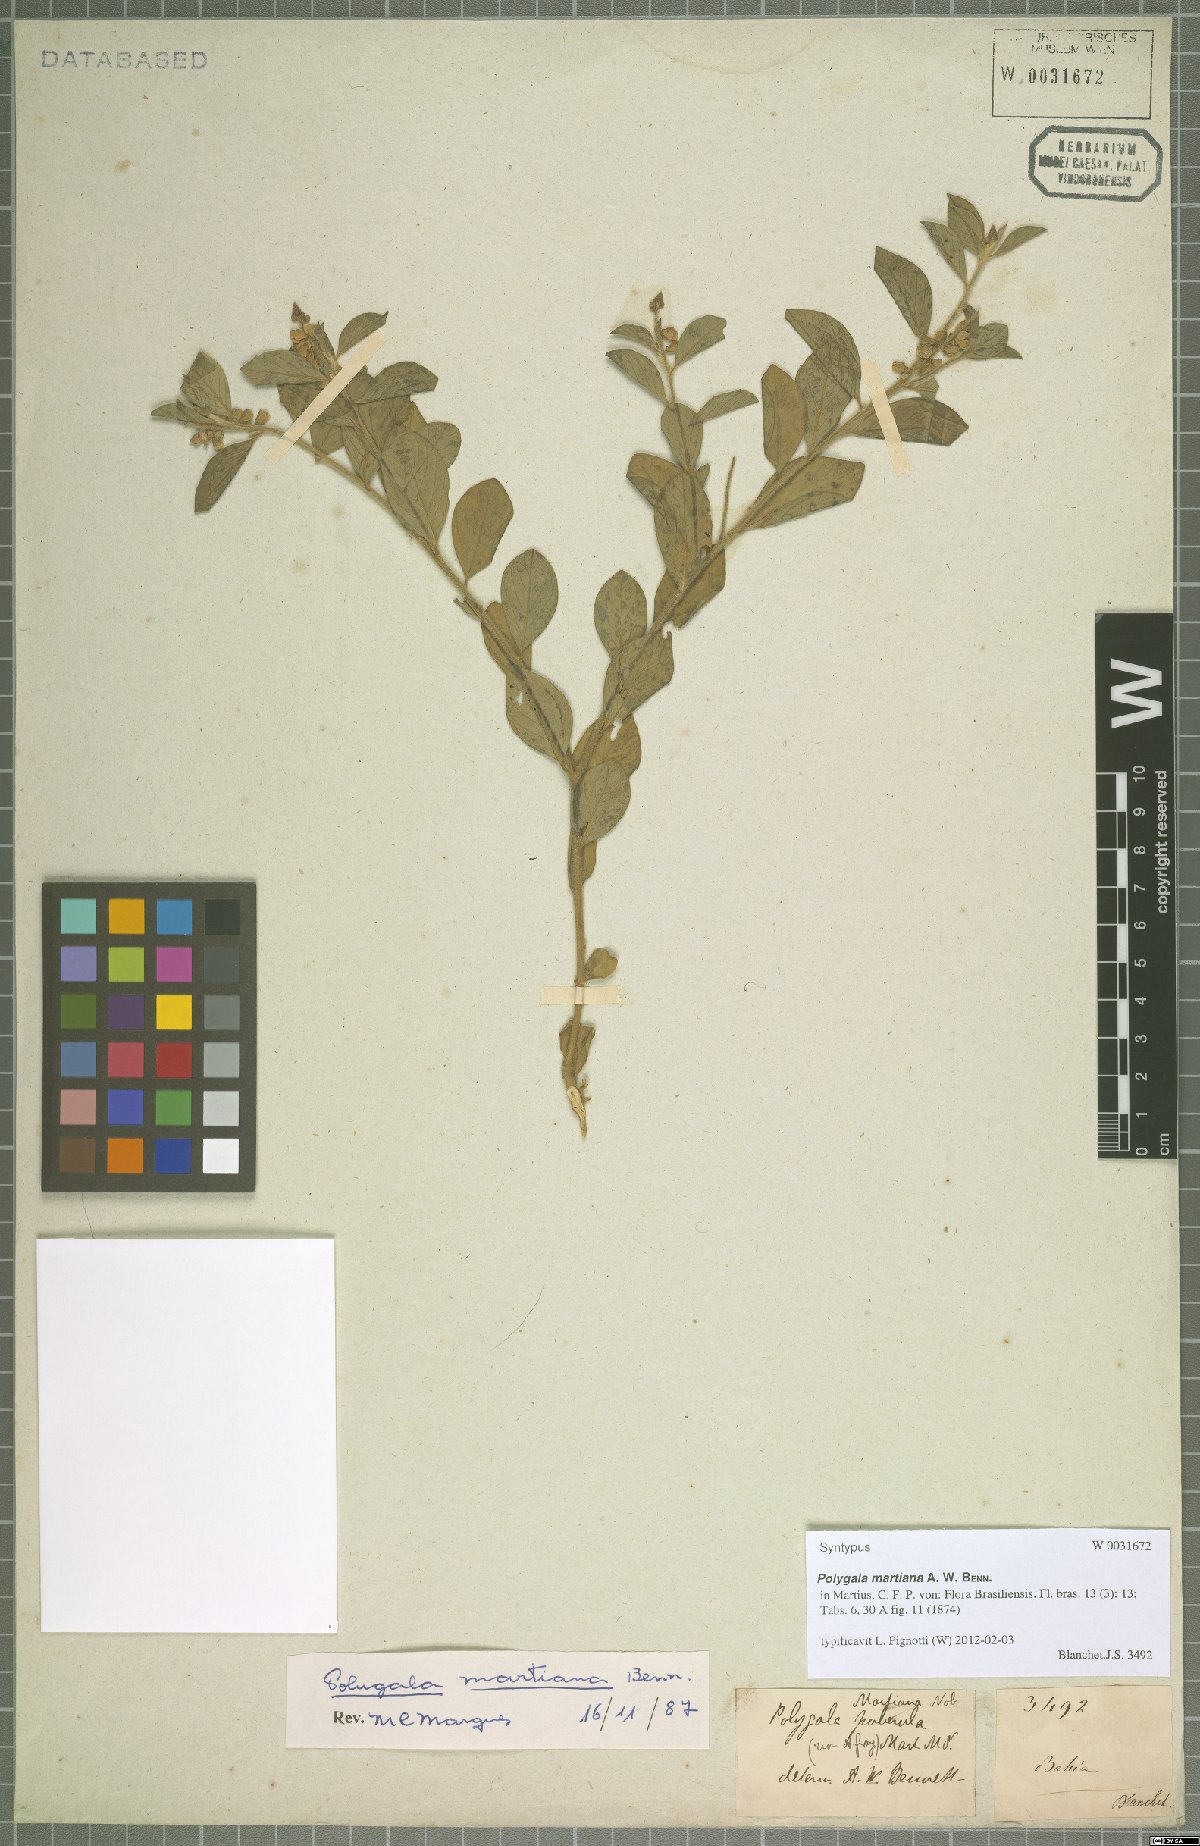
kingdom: Plantae
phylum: Tracheophyta
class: Magnoliopsida
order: Fabales
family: Polygalaceae
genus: Asemeia
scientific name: Asemeia martiana
